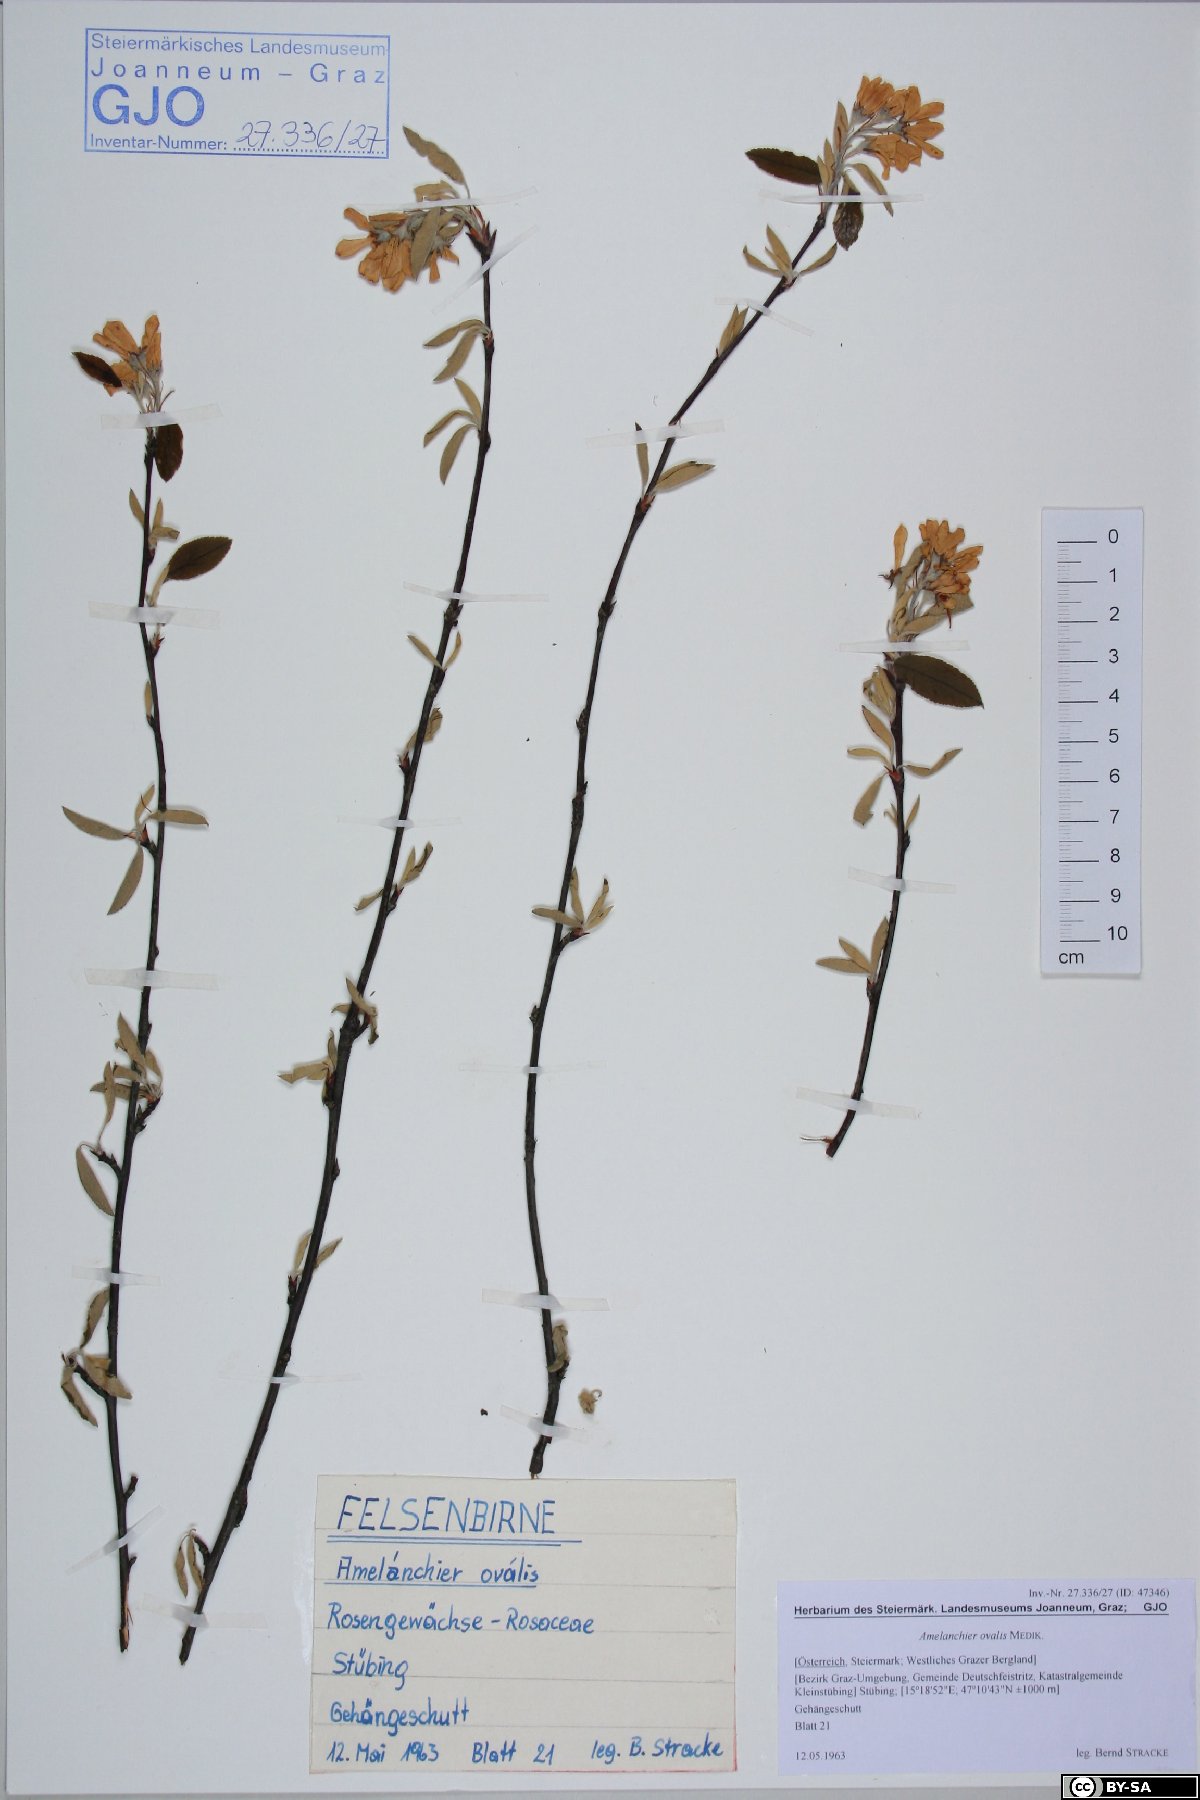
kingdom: Plantae
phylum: Tracheophyta
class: Magnoliopsida
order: Rosales
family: Rosaceae
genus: Amelanchier
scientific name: Amelanchier ovalis
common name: Serviceberry
